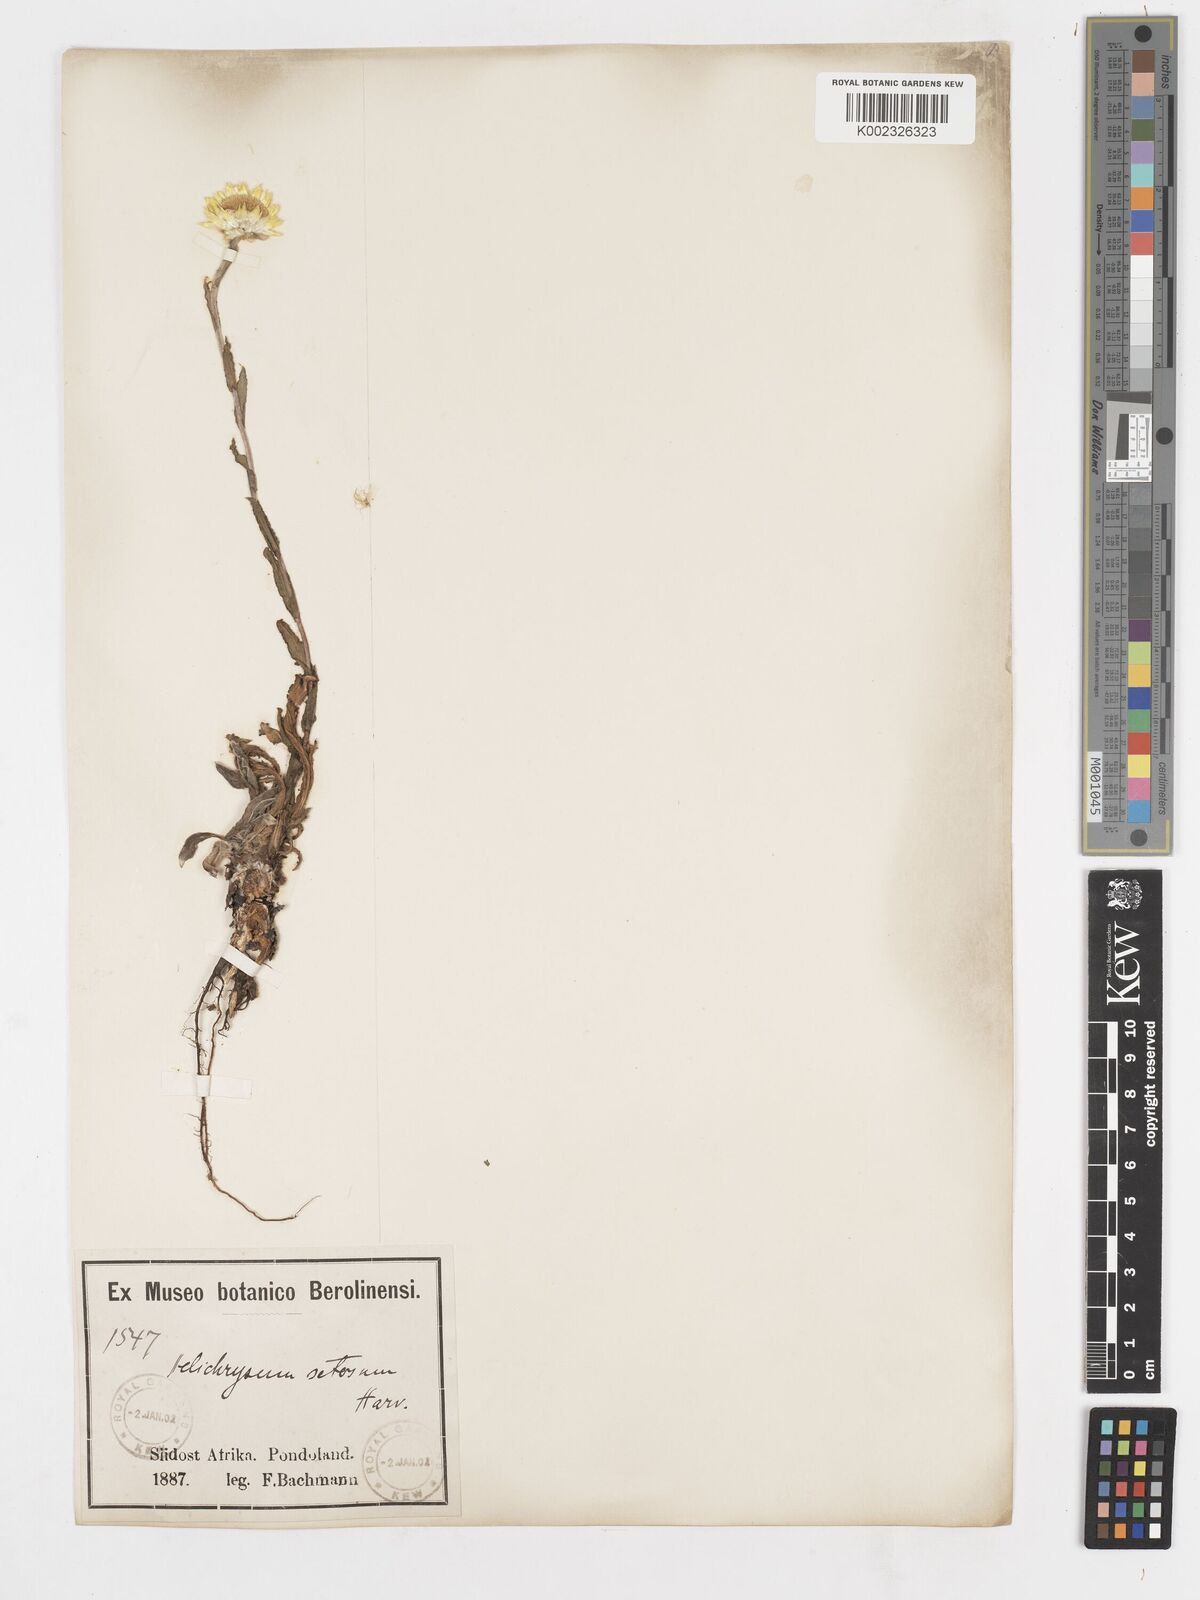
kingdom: Plantae
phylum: Tracheophyta
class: Magnoliopsida
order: Asterales
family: Asteraceae
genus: Helichrysum
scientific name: Helichrysum aureum
